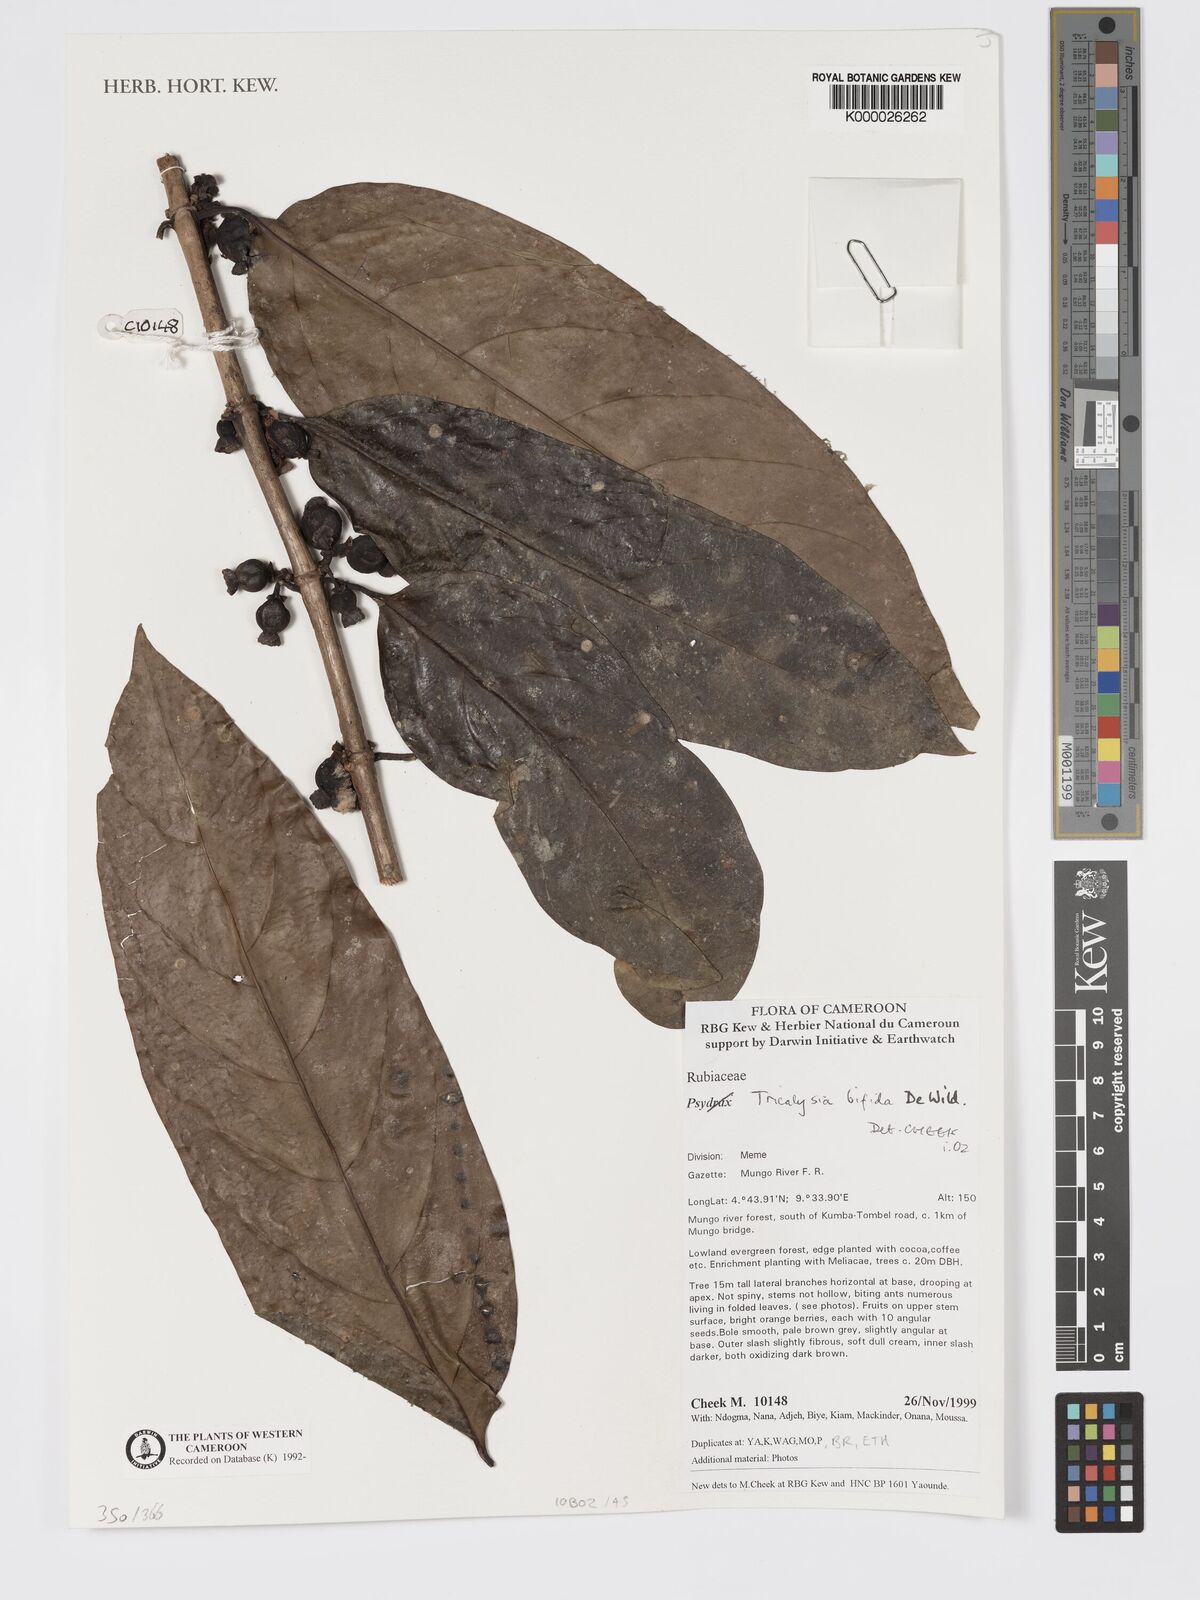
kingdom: Plantae
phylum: Tracheophyta
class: Magnoliopsida
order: Gentianales
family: Rubiaceae
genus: Tricalysia
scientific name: Tricalysia bifida
